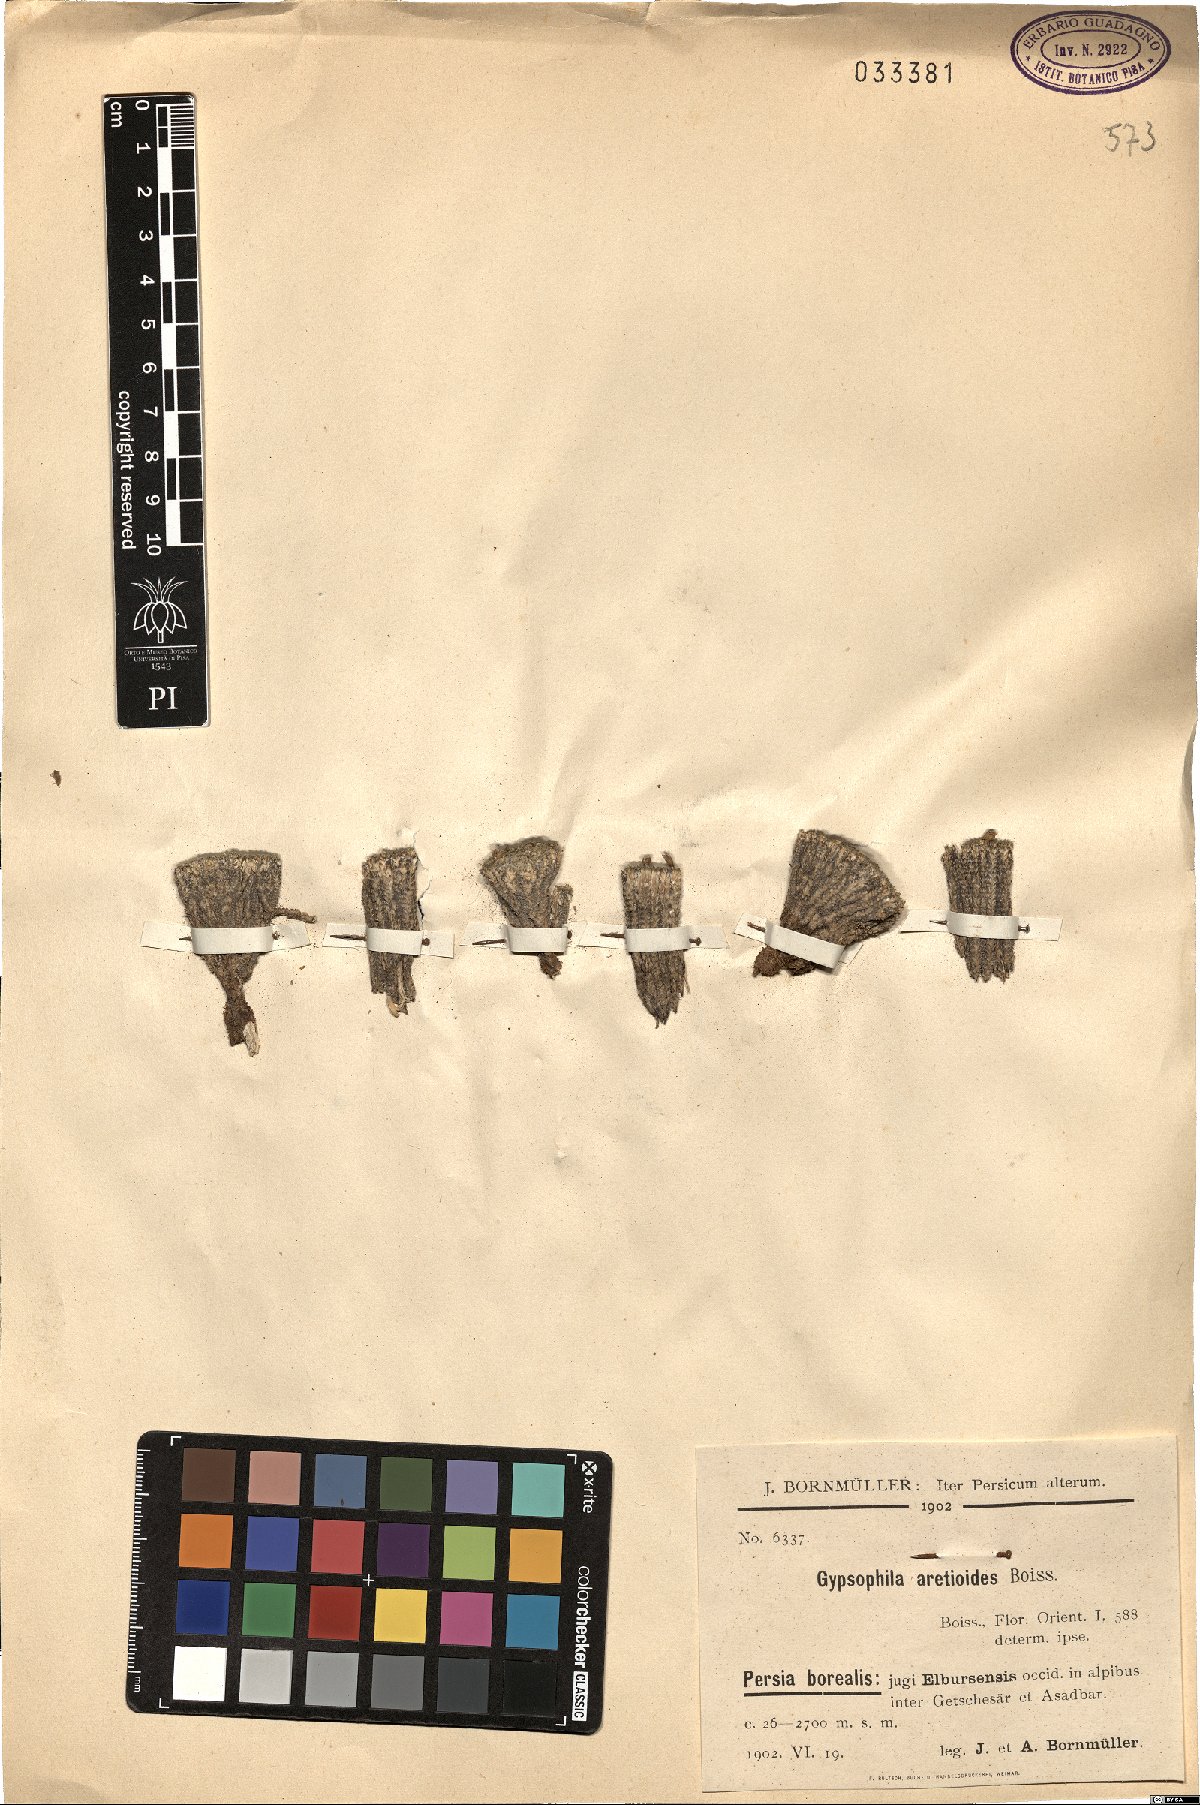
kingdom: Plantae
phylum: Tracheophyta
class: Magnoliopsida
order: Caryophyllales
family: Caryophyllaceae
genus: Gypsophila
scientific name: Gypsophila aretioides
